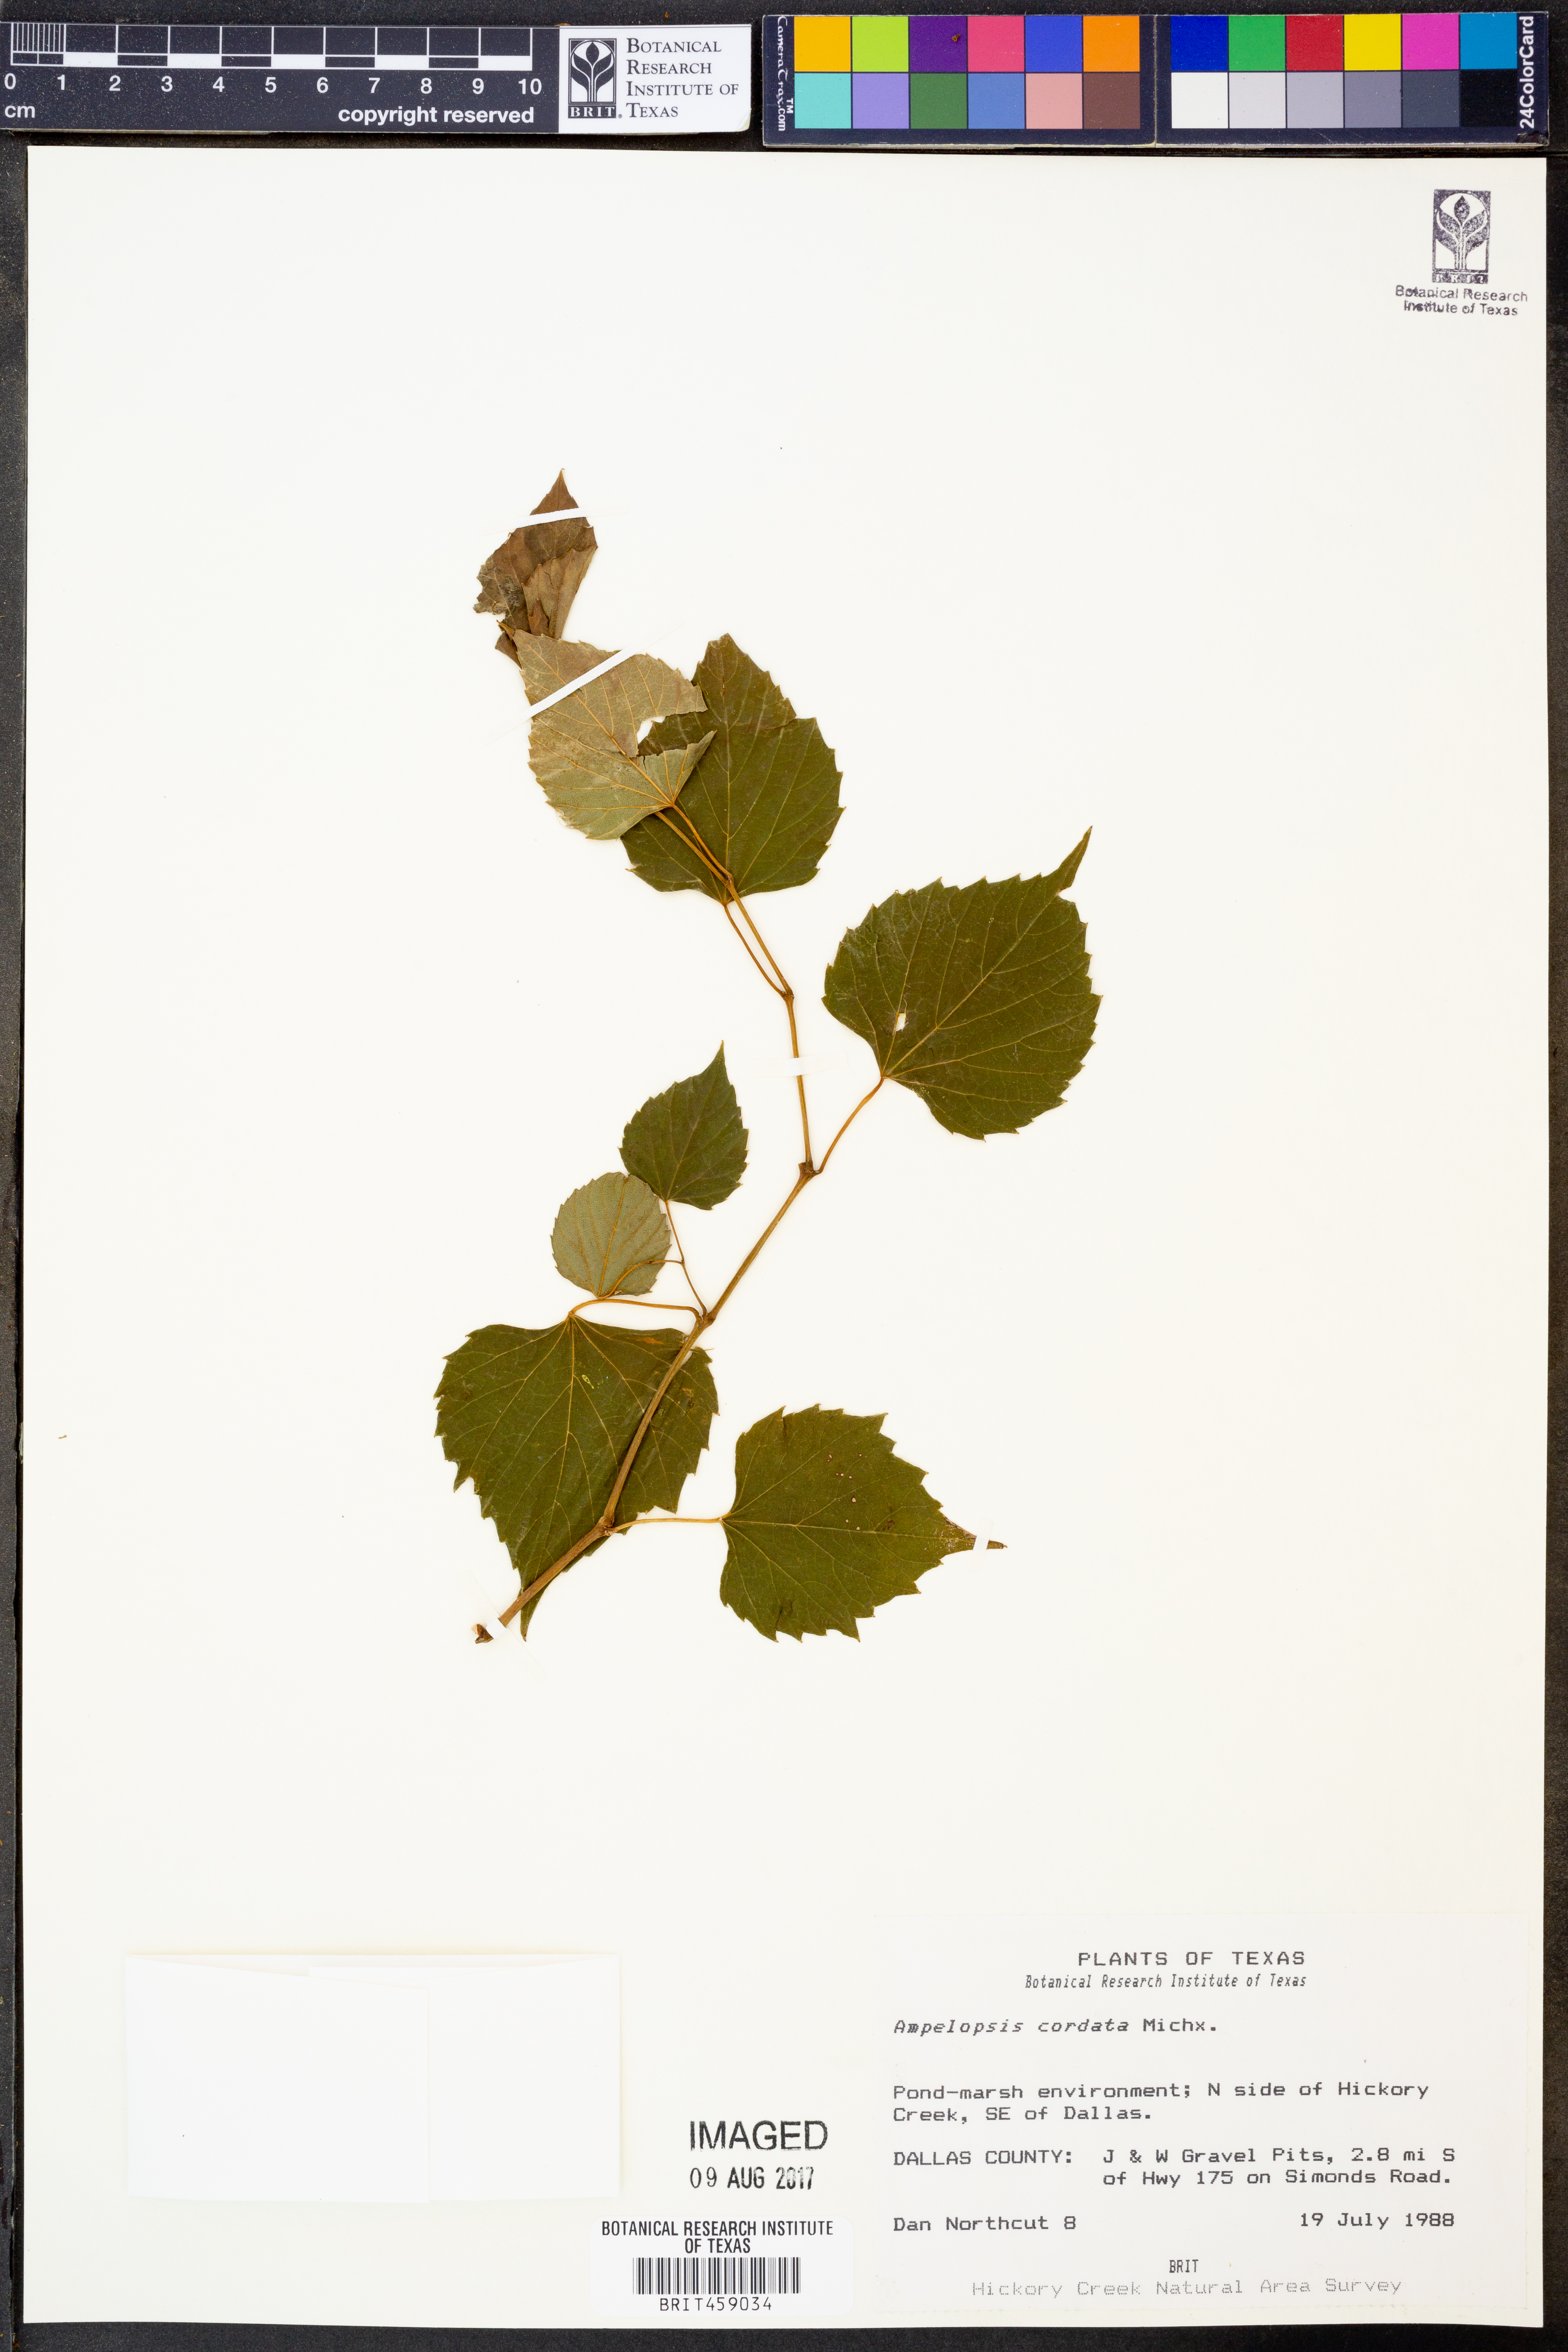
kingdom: Plantae
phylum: Tracheophyta
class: Magnoliopsida
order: Vitales
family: Vitaceae
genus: Ampelopsis
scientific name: Ampelopsis cordata
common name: Heart-leaf ampelopsis
